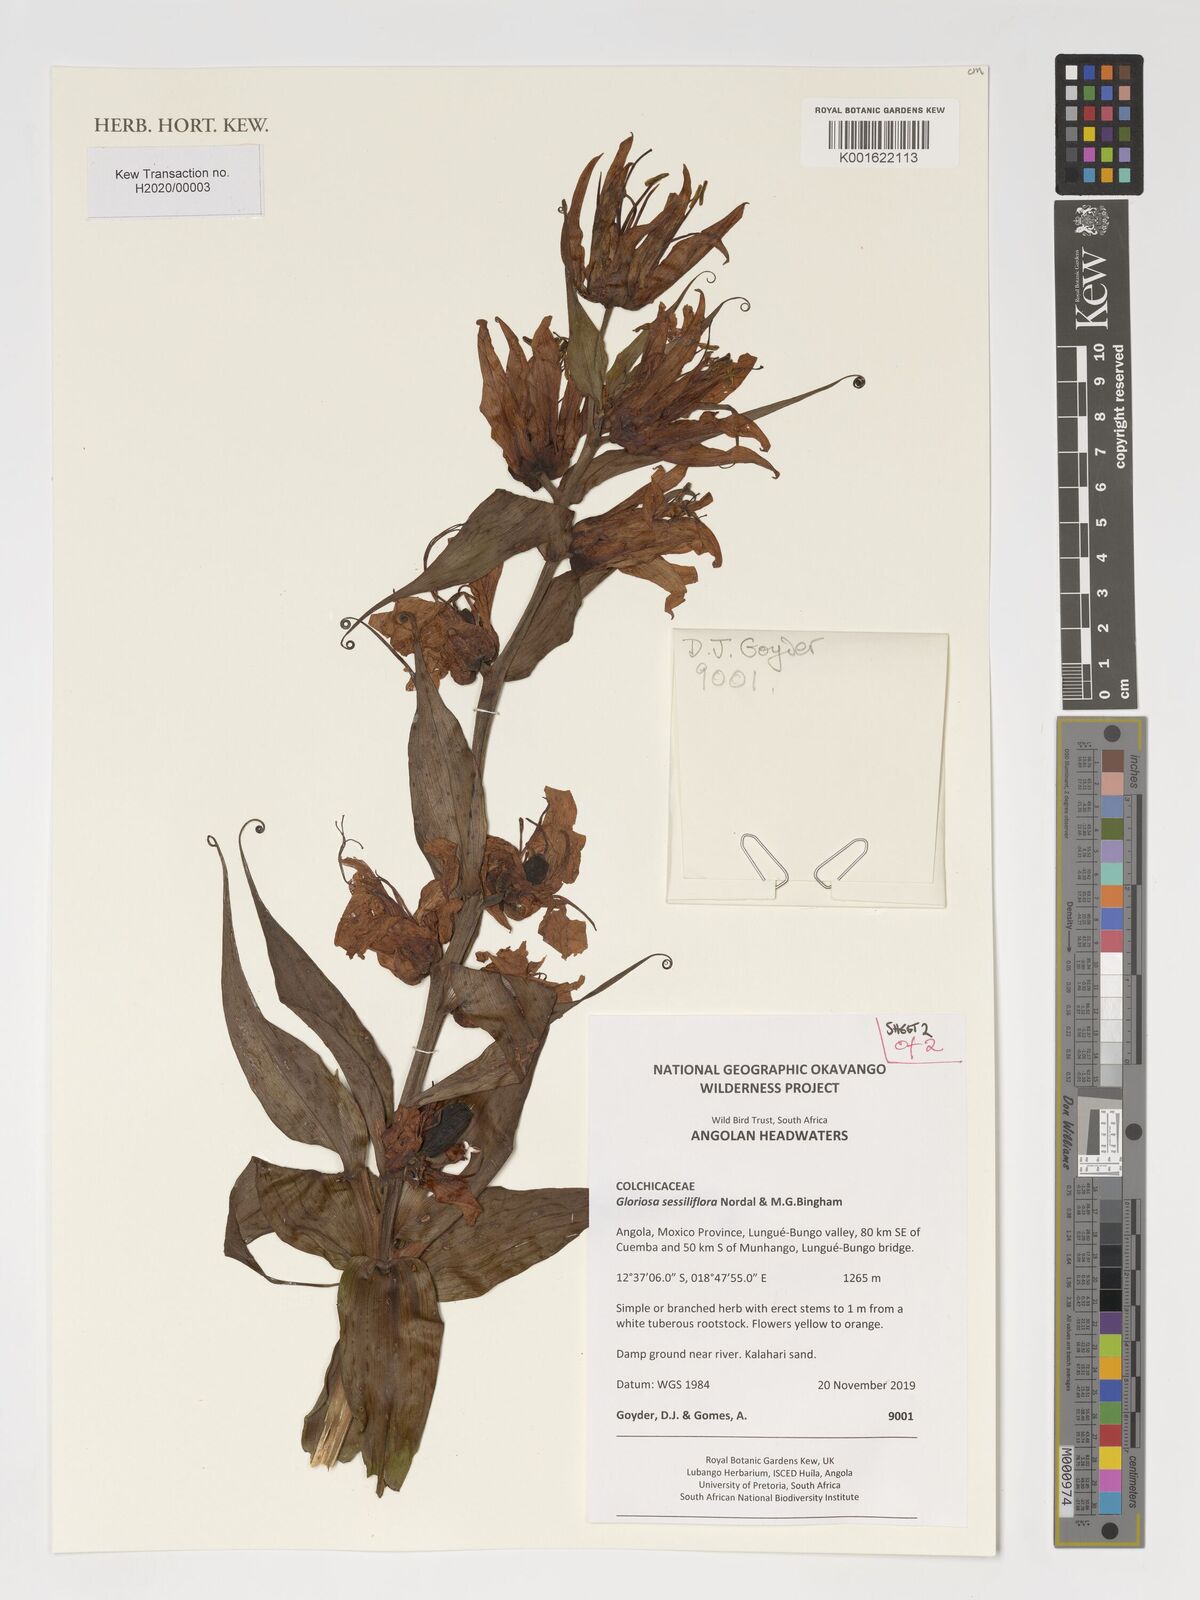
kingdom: Plantae
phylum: Tracheophyta
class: Liliopsida
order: Liliales
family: Colchicaceae
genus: Gloriosa
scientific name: Gloriosa sessiliflora
